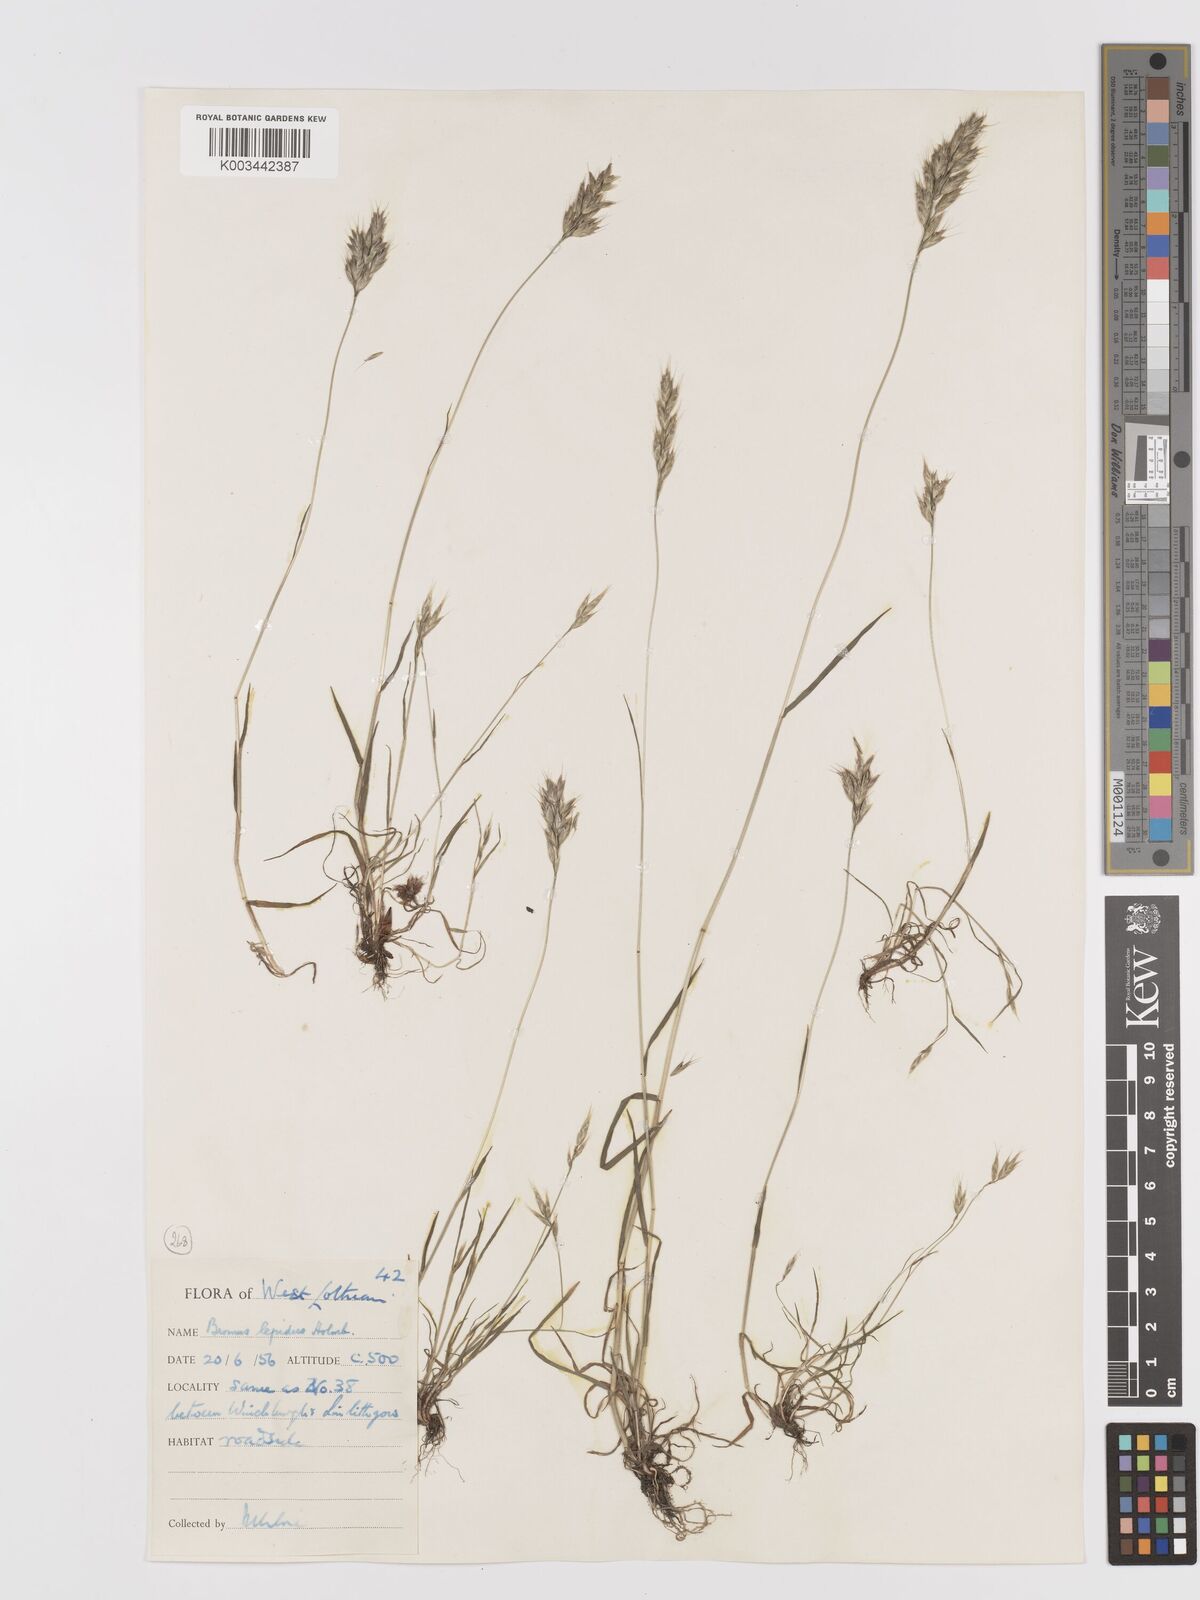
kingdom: Plantae
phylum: Tracheophyta
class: Liliopsida
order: Poales
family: Poaceae
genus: Bromus
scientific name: Bromus lepidus
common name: Slender soft-brome
